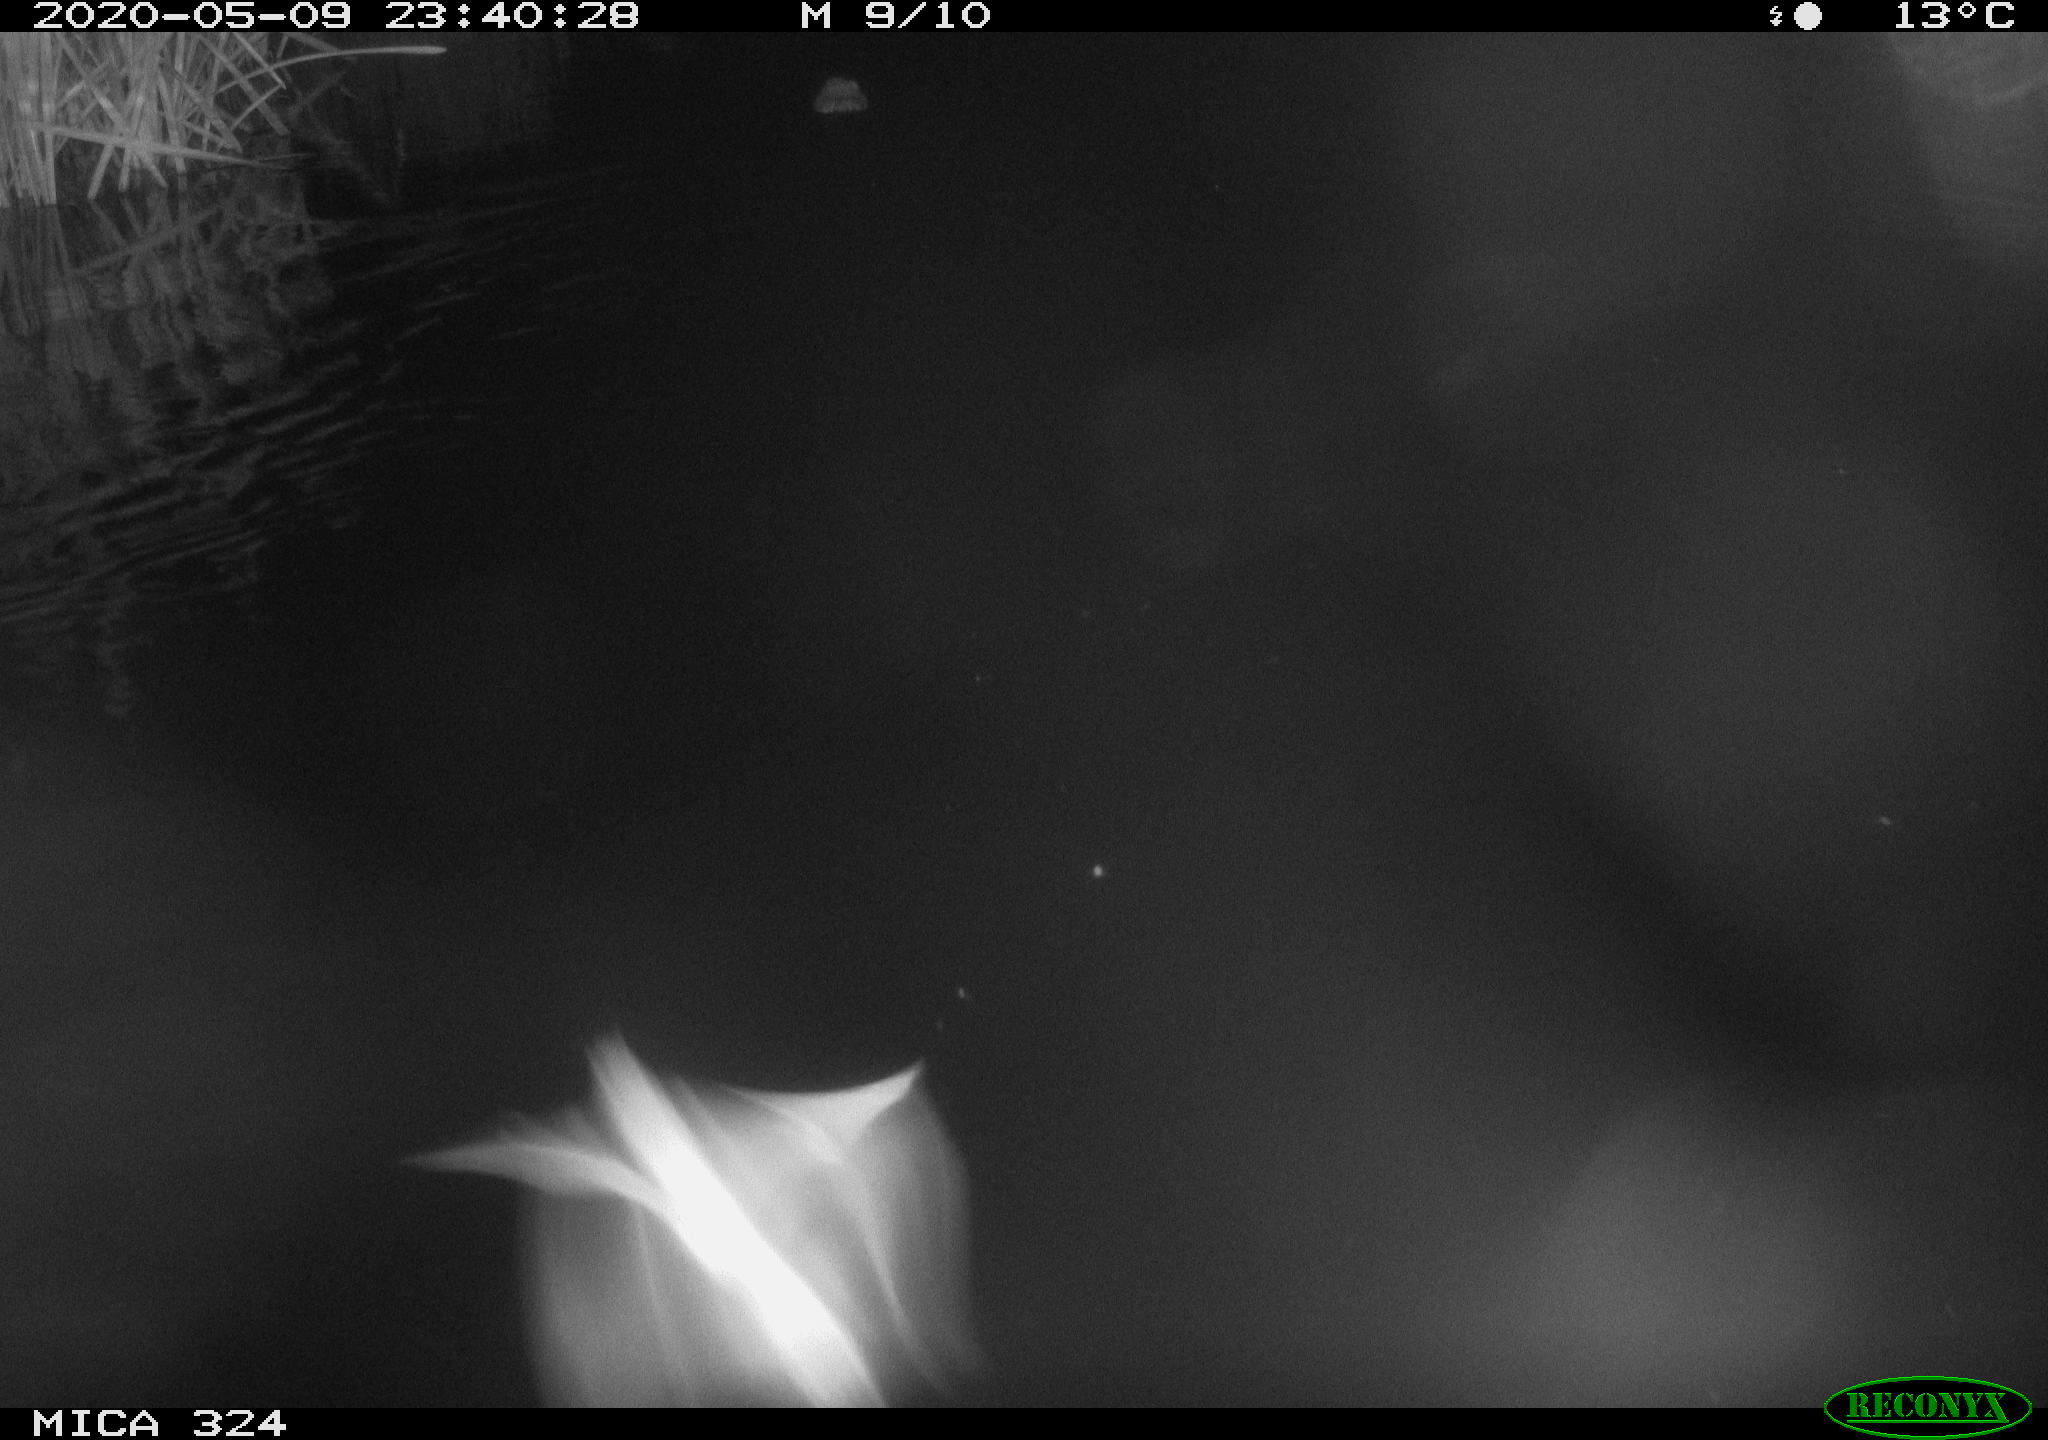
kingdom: Animalia
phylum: Chordata
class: Mammalia
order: Rodentia
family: Muridae
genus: Rattus
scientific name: Rattus norvegicus
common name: Brown rat
